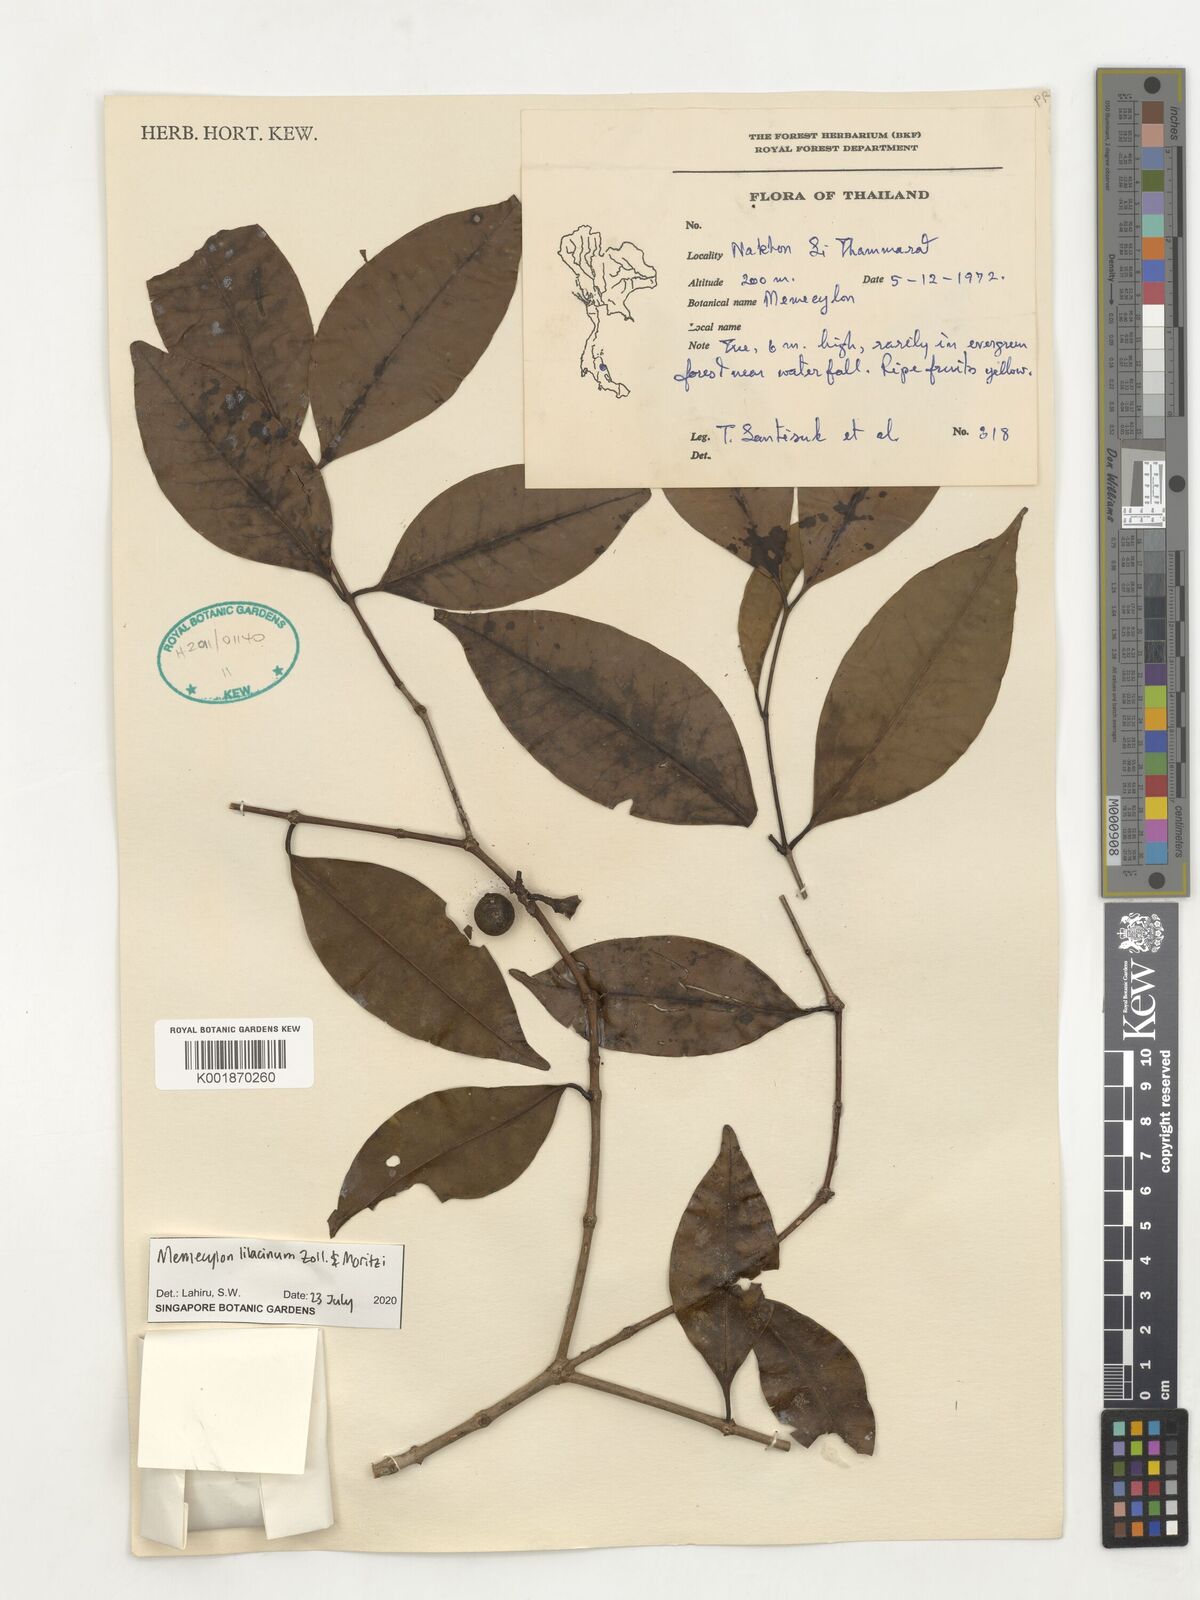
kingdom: Plantae
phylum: Tracheophyta
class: Magnoliopsida
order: Myrtales
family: Melastomataceae
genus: Memecylon
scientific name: Memecylon lilacinum
